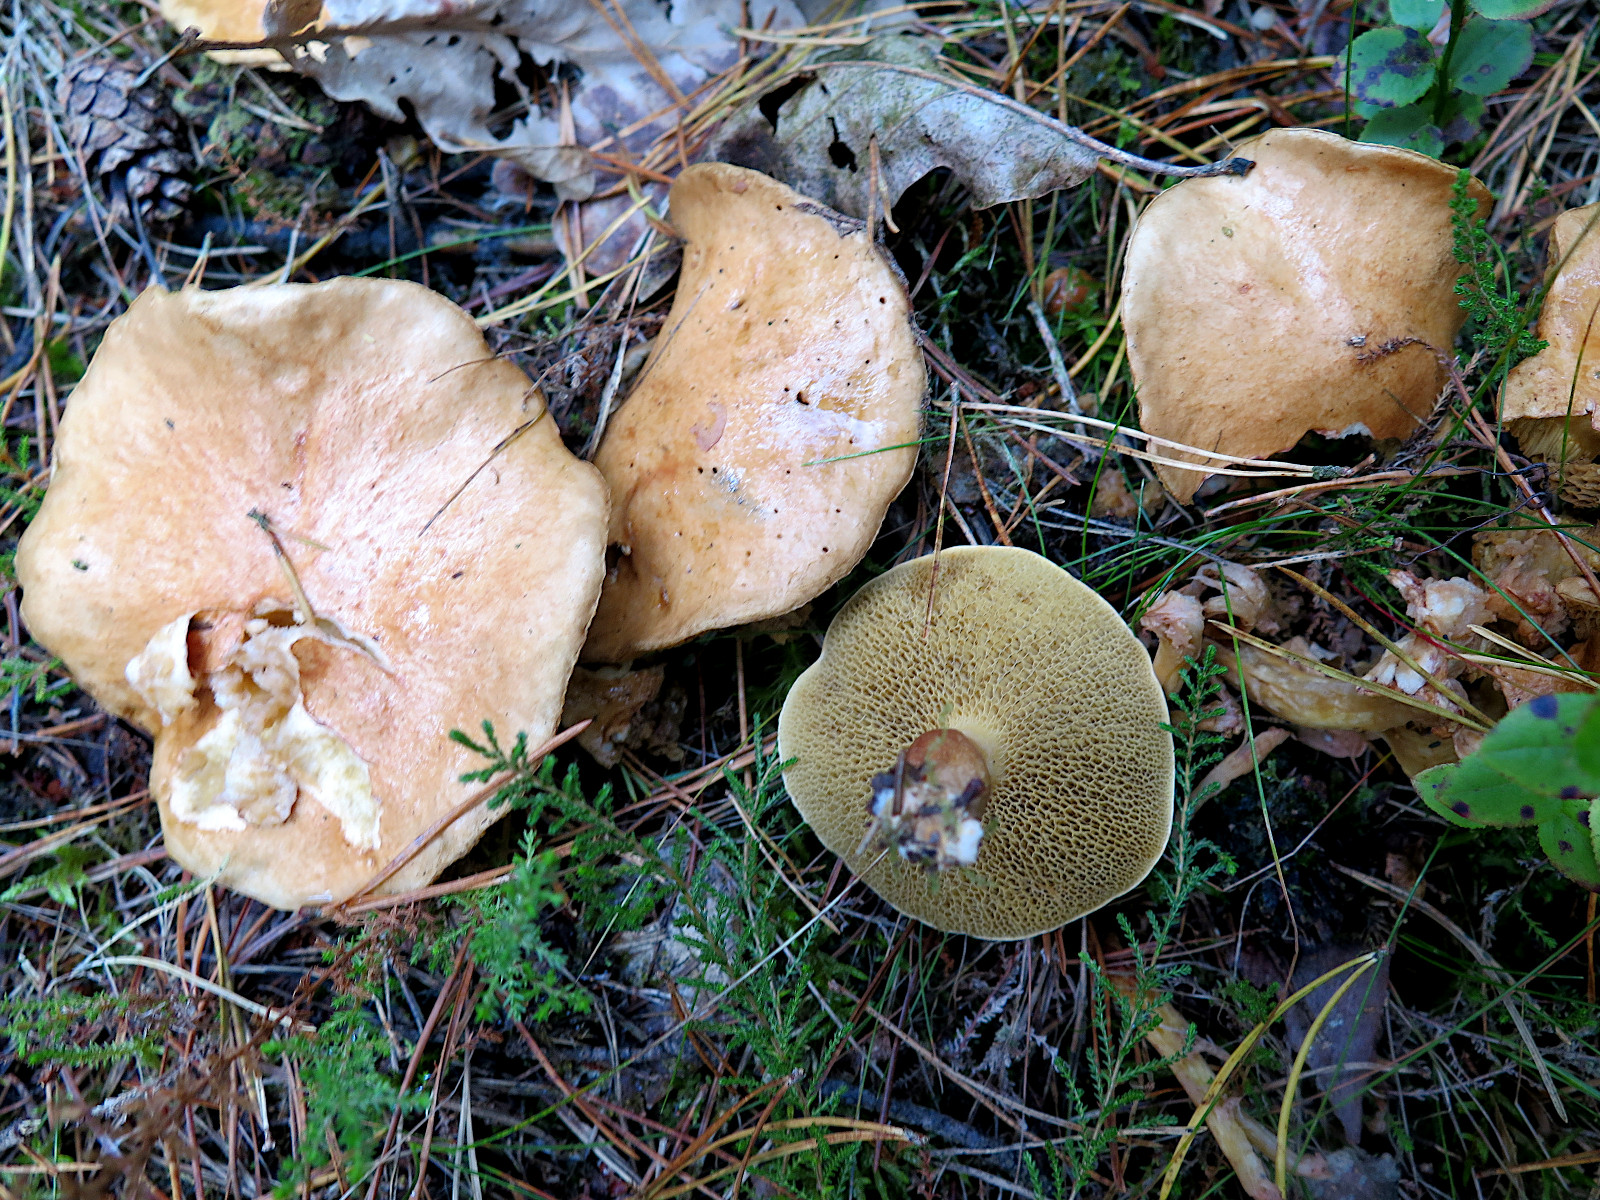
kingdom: Fungi
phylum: Basidiomycota
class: Agaricomycetes
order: Boletales
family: Suillaceae
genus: Suillus
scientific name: Suillus bovinus
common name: grovporet slimrørhat
